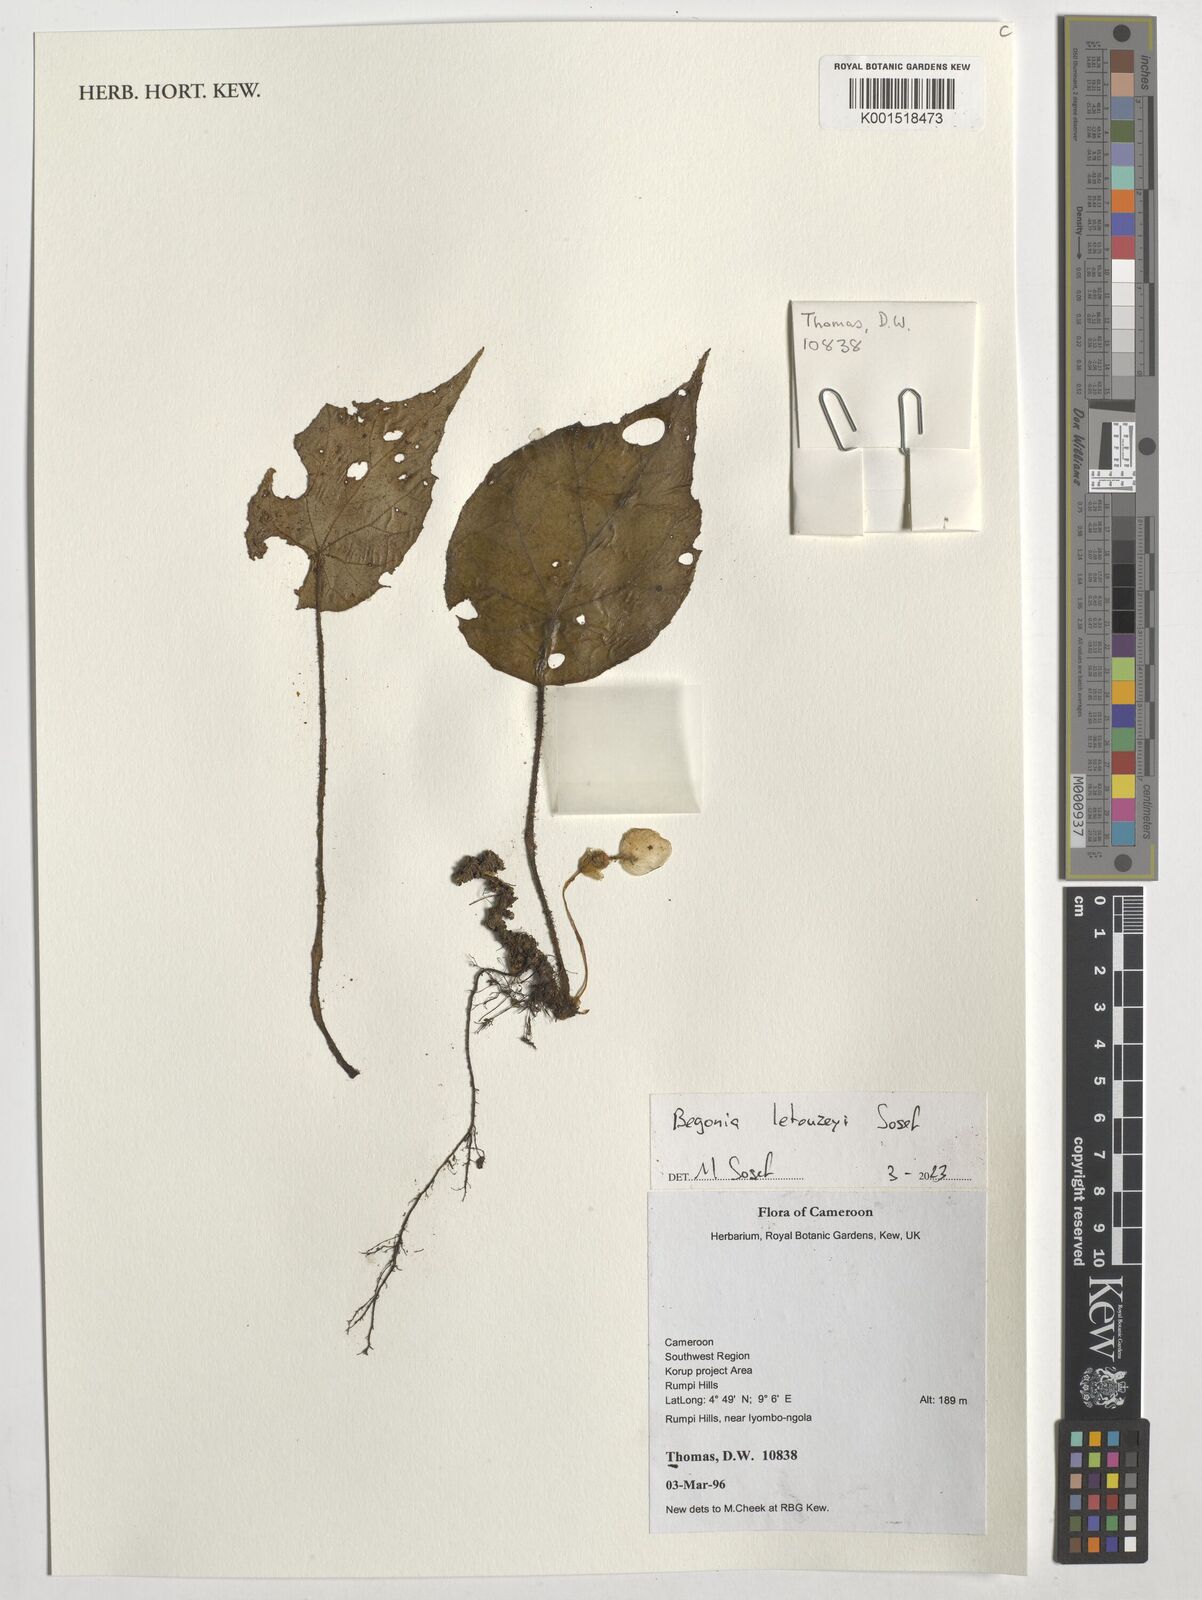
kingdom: Plantae
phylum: Tracheophyta
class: Magnoliopsida
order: Cucurbitales
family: Begoniaceae
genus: Begonia
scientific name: Begonia letouzeyi
